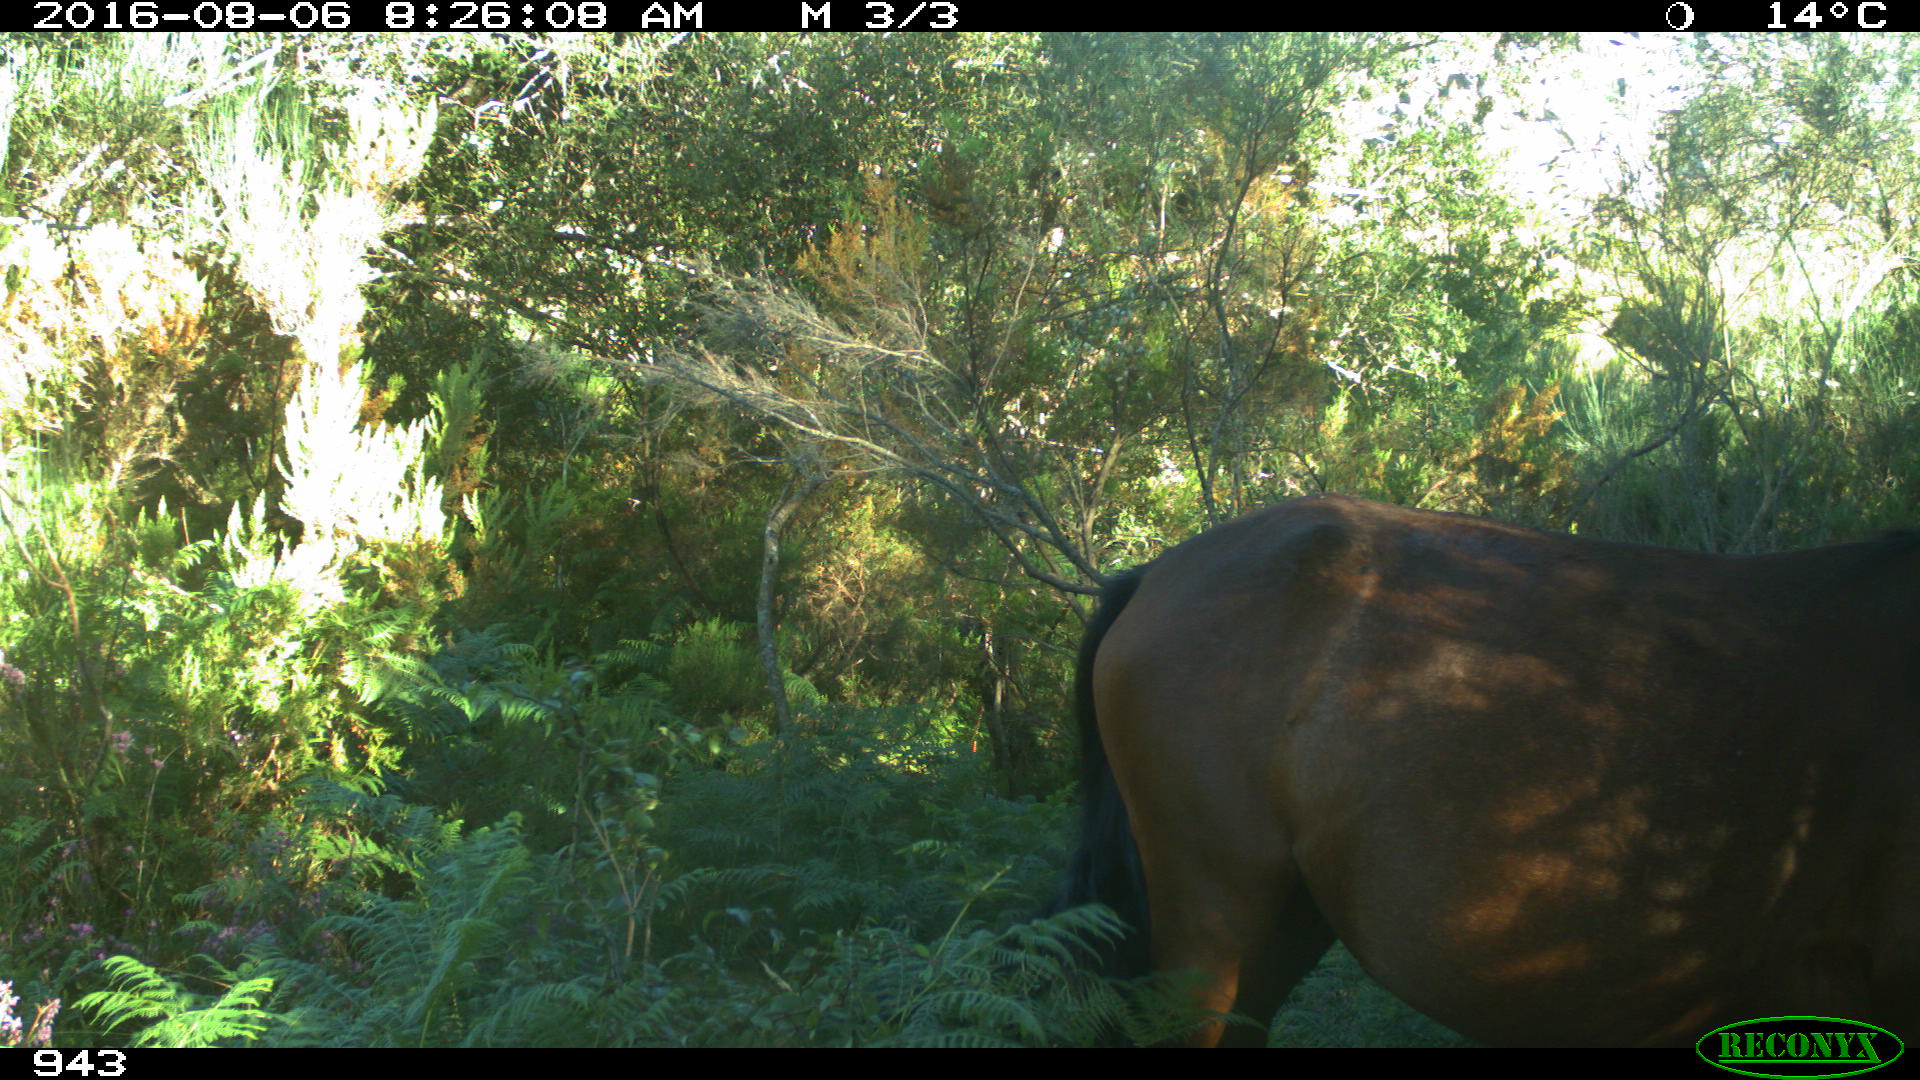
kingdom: Animalia
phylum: Chordata
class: Mammalia
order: Perissodactyla
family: Equidae
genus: Equus
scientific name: Equus caballus
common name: Horse
